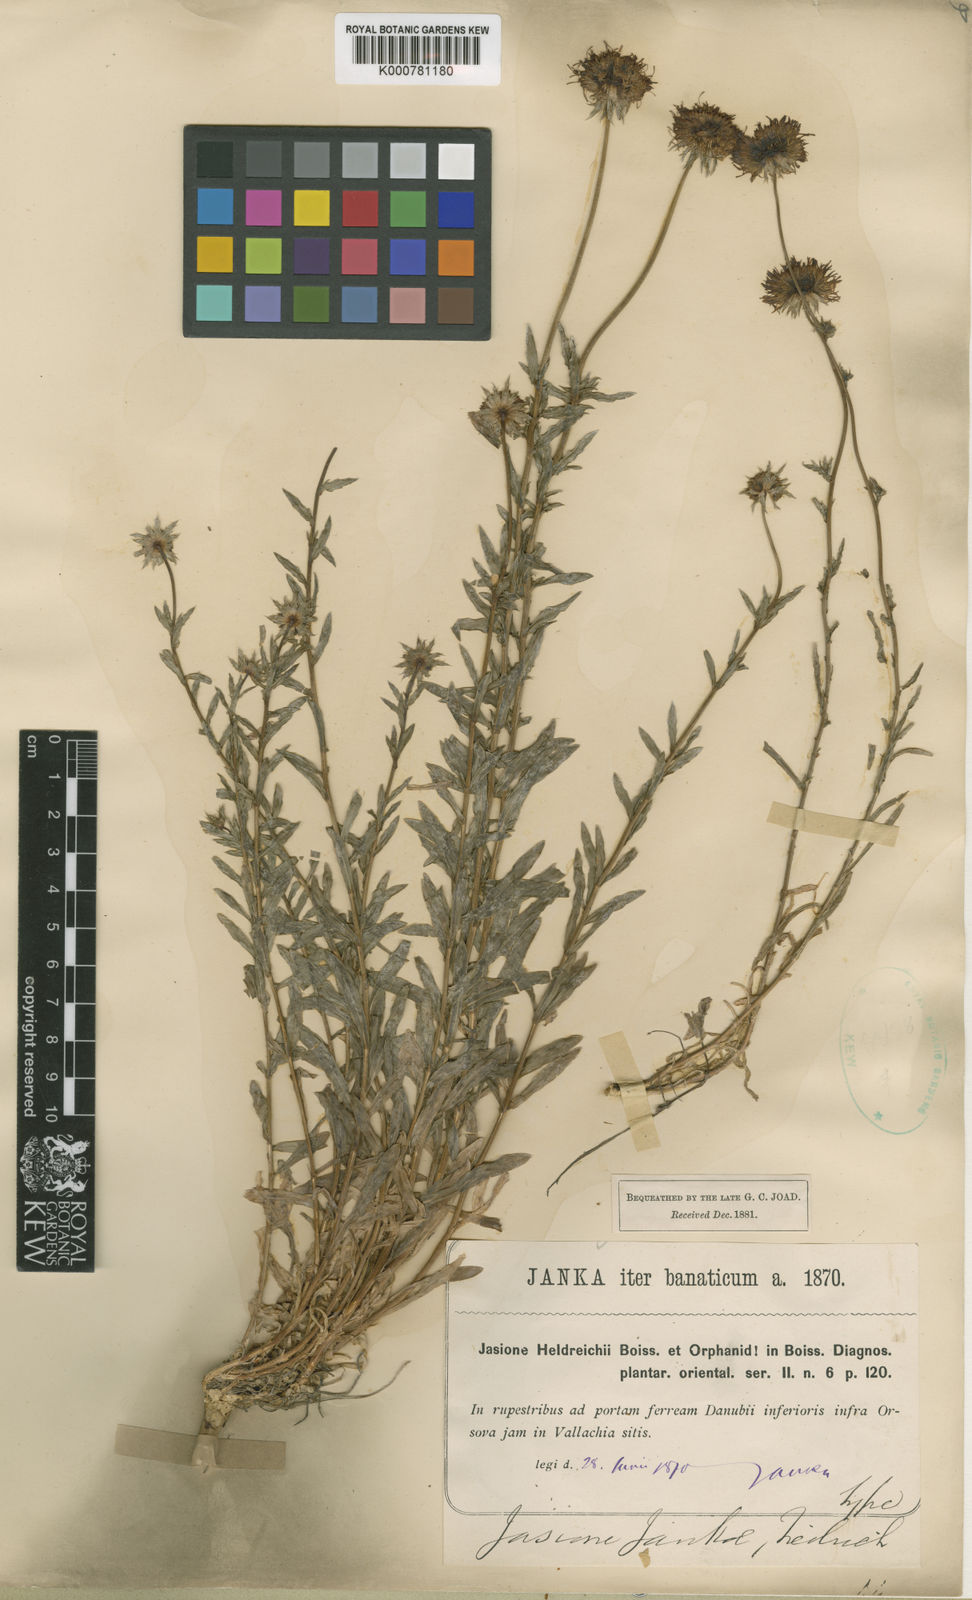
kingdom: Plantae
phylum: Tracheophyta
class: Magnoliopsida
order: Asterales
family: Campanulaceae
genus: Jasione
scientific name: Jasione heldreichii
